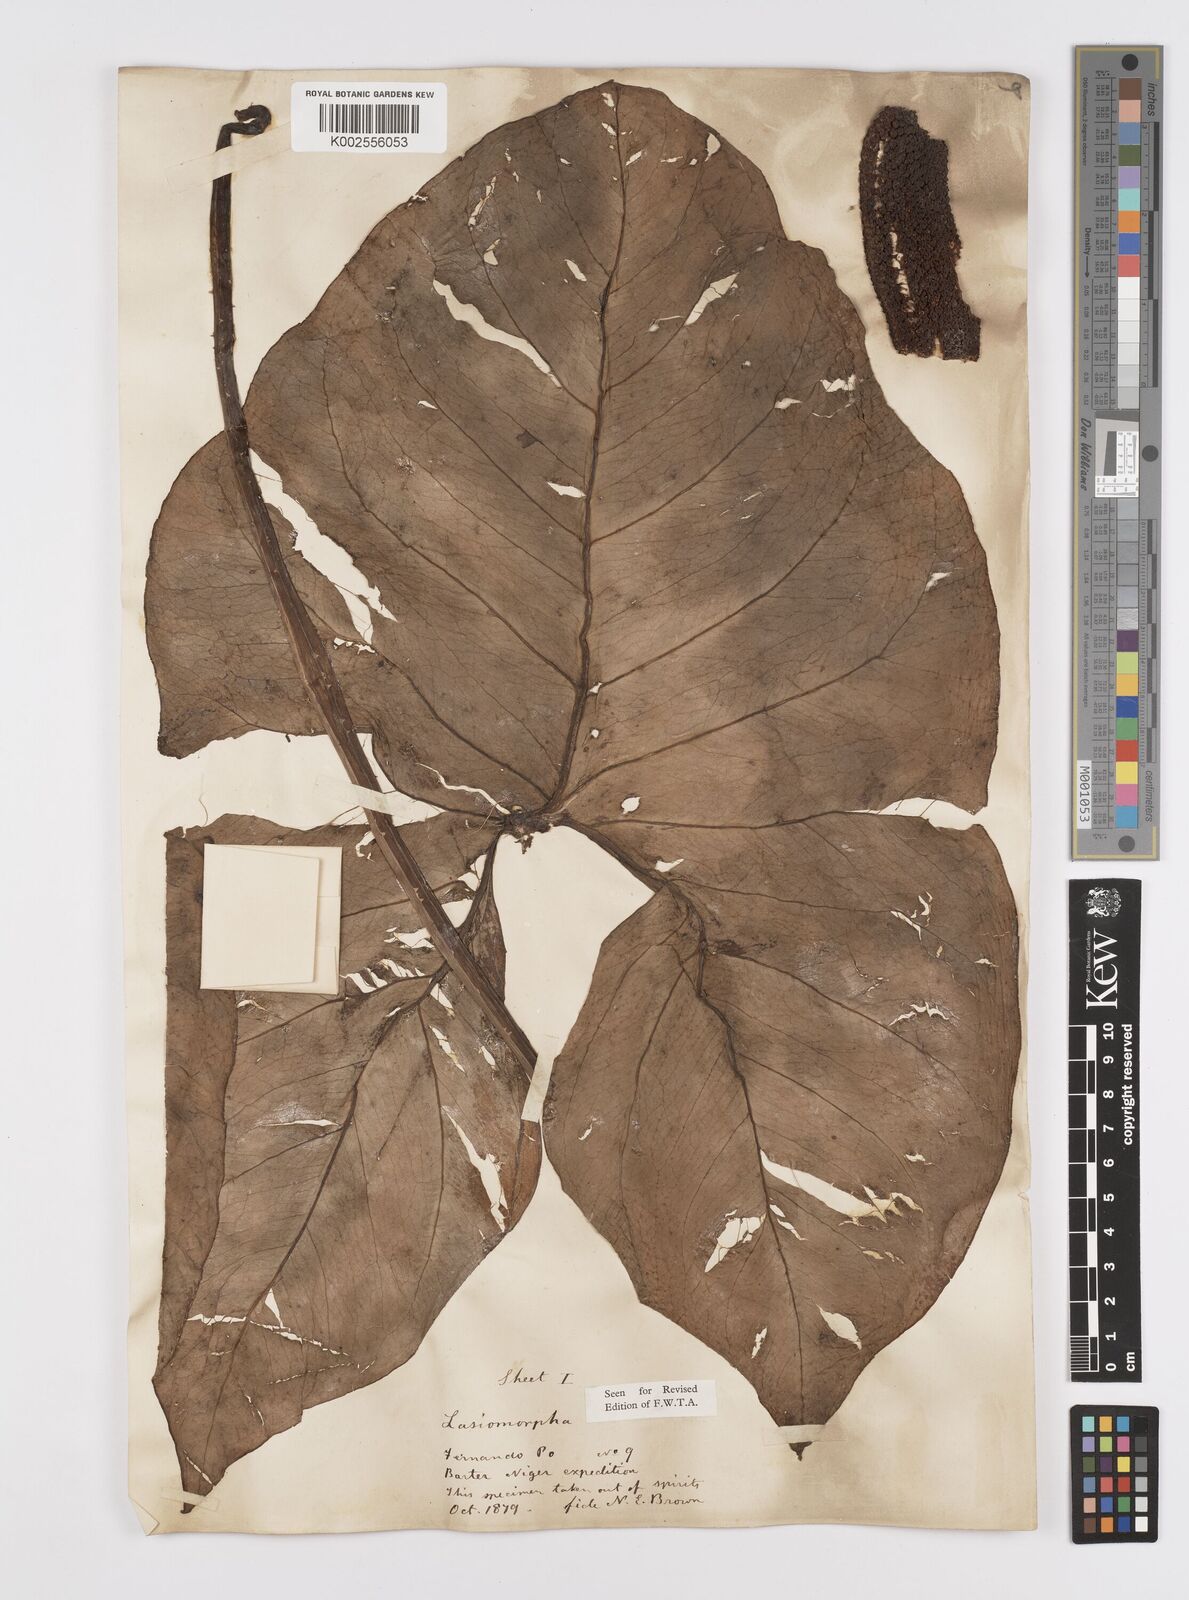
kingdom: Plantae
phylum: Tracheophyta
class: Liliopsida
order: Alismatales
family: Araceae
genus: Lasimorpha
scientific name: Lasimorpha senegalensis
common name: Swamp arum
